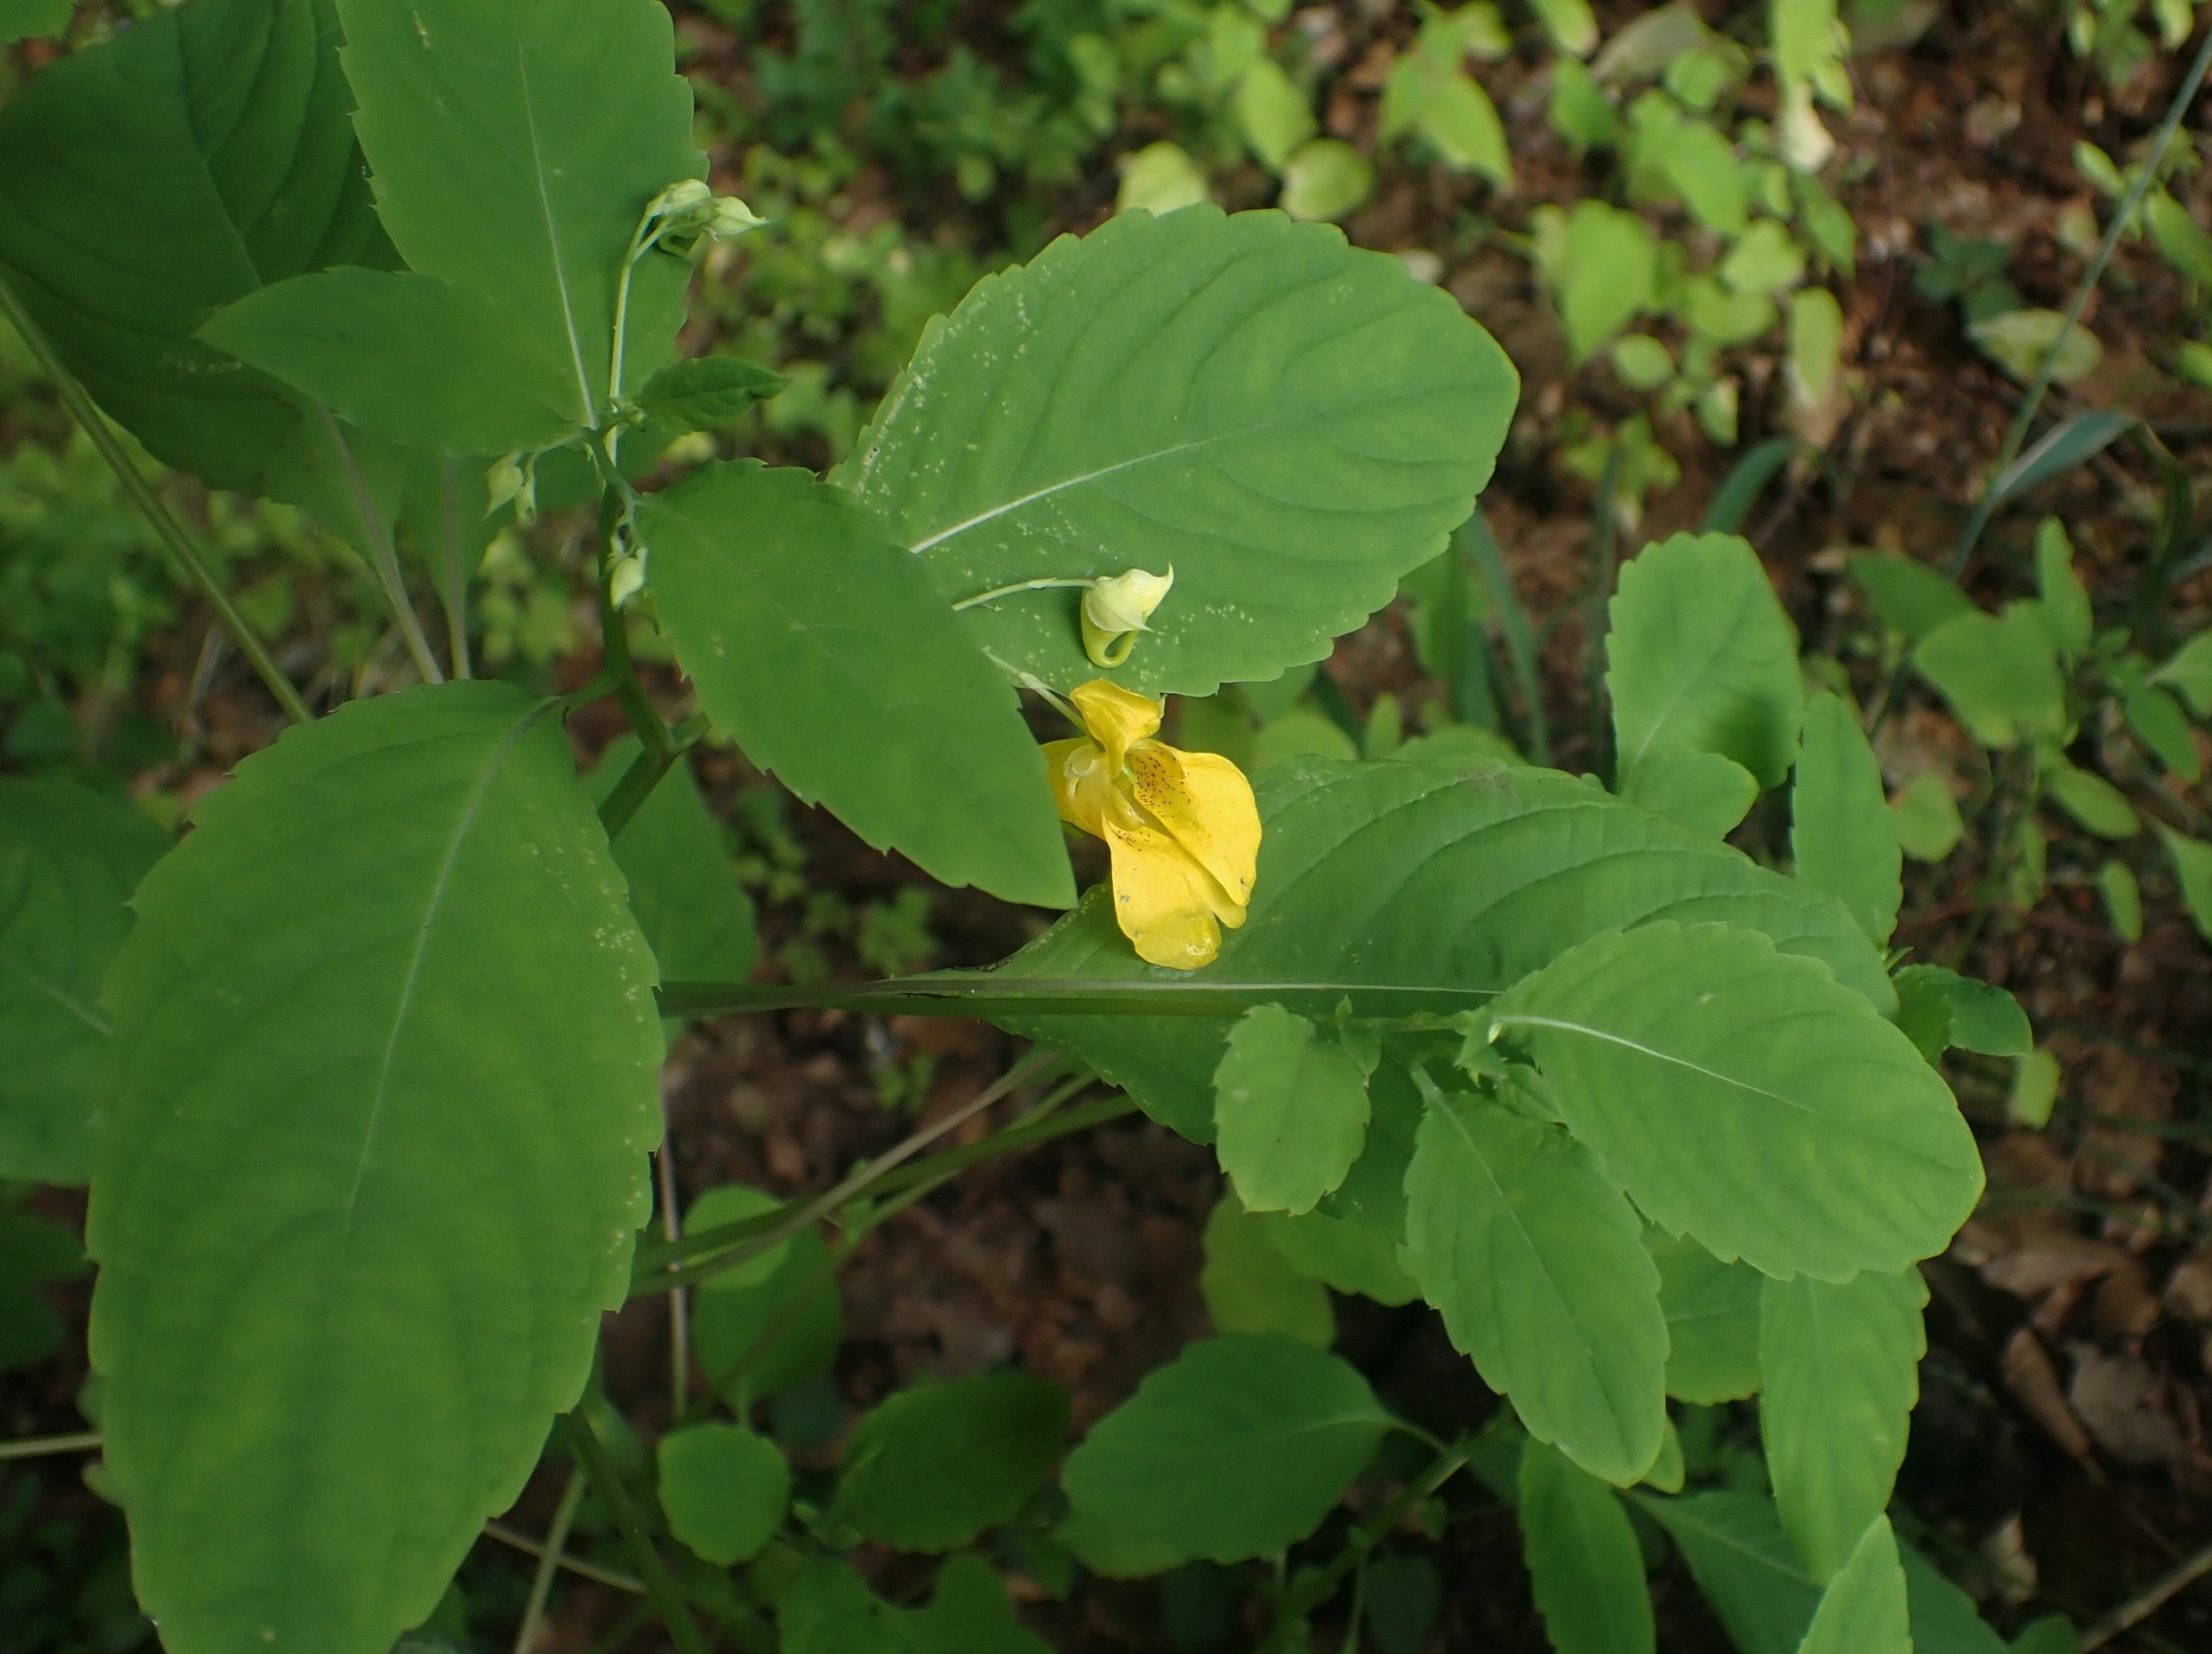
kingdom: Plantae
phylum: Tracheophyta
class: Magnoliopsida
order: Ericales
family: Balsaminaceae
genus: Impatiens
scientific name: Impatiens noli-tangere
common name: Spring-balsamin
